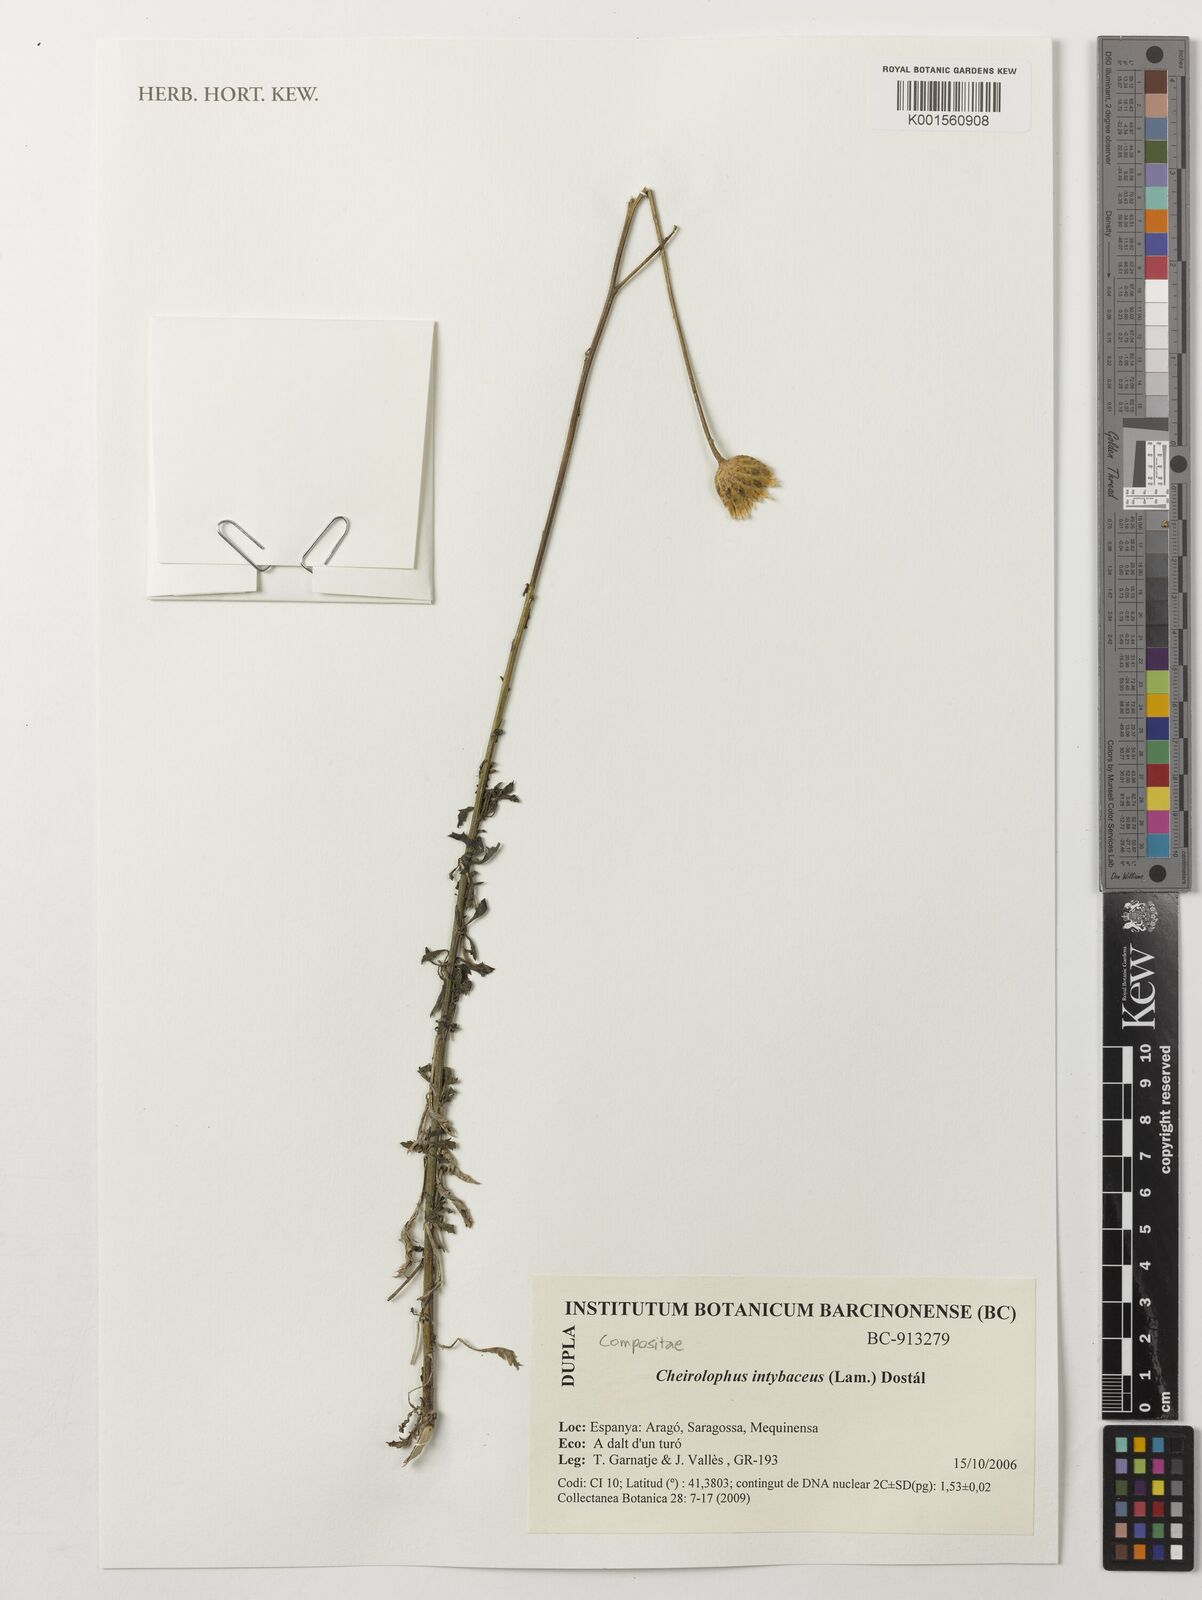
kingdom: Plantae
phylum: Tracheophyta
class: Magnoliopsida
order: Asterales
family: Asteraceae
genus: Cheirolophus
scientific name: Cheirolophus intybaceus
